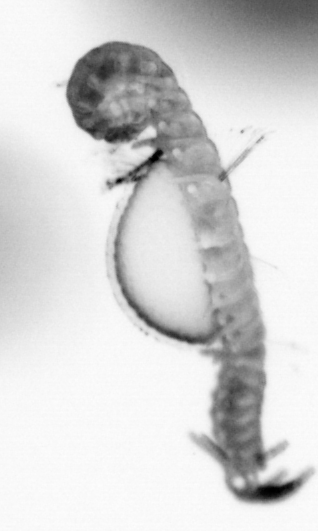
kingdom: Animalia
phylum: Annelida
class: Polychaeta
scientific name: Polychaeta
